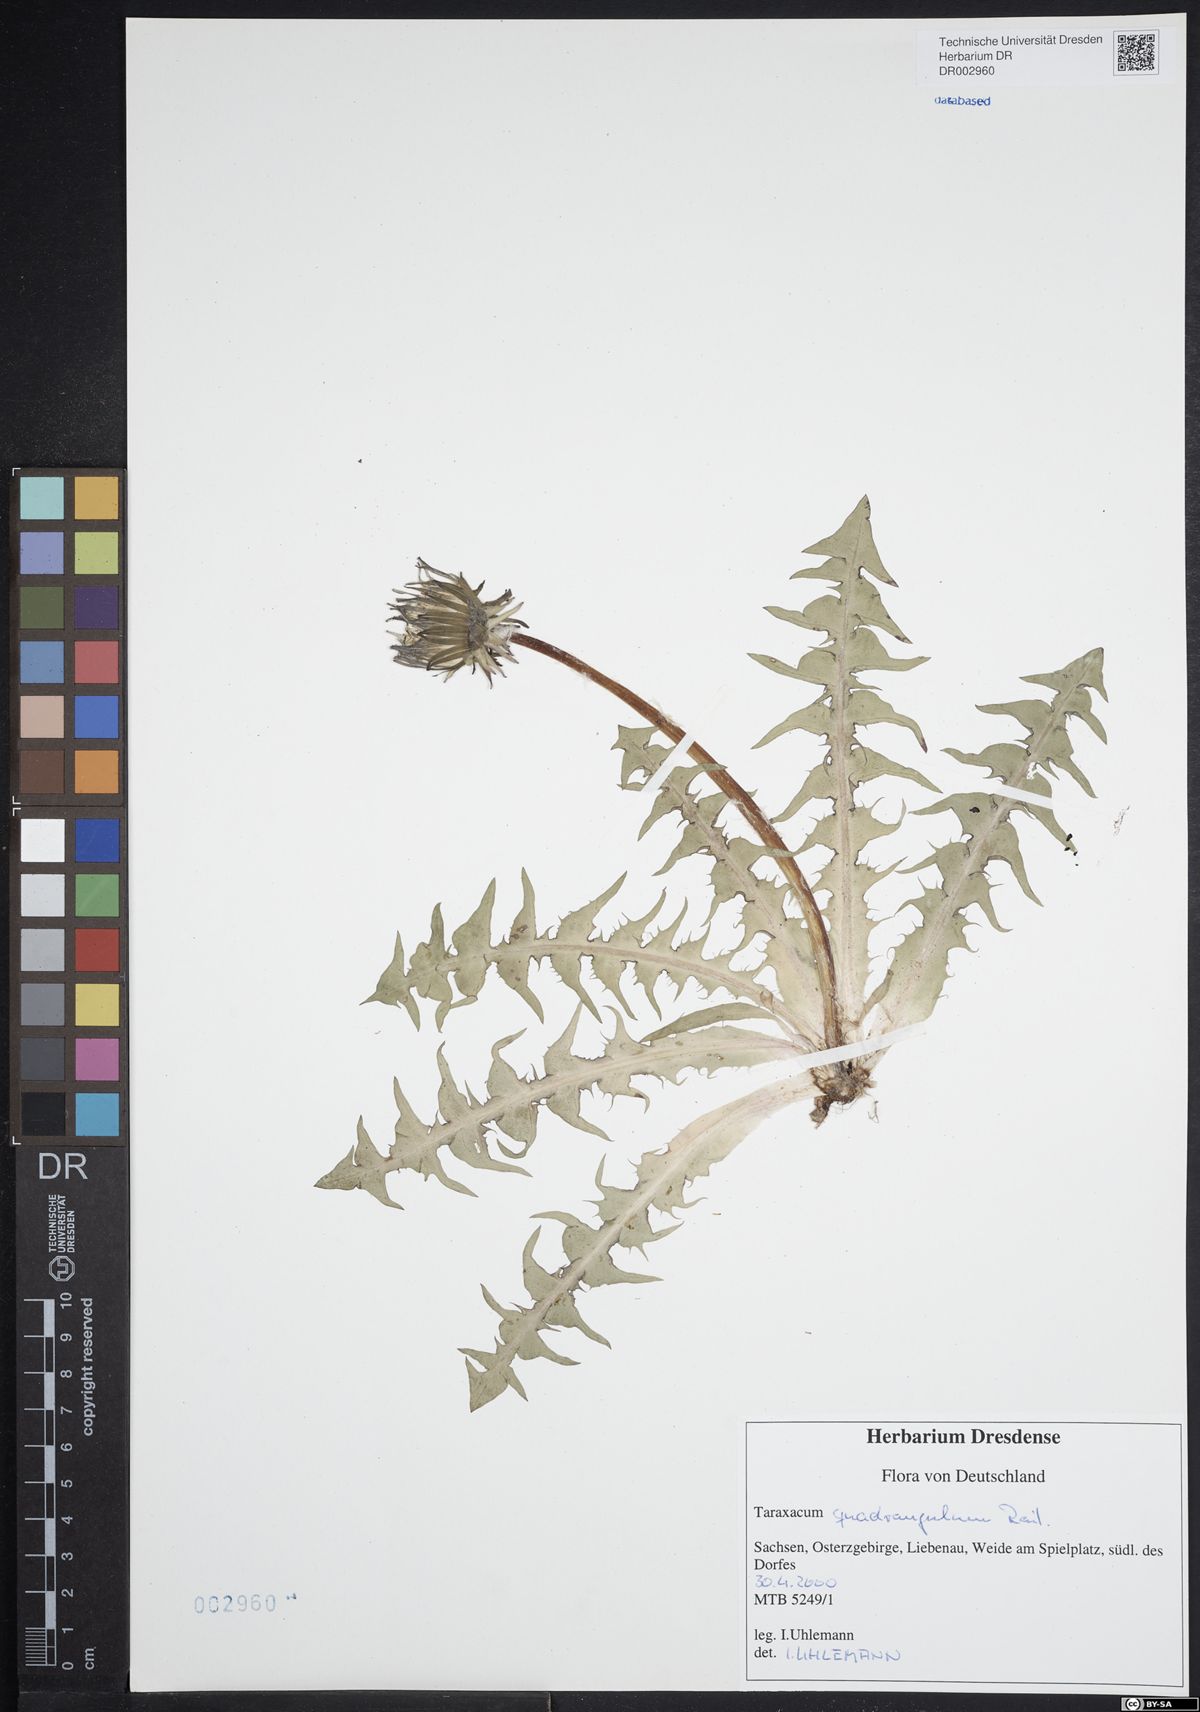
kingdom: Plantae
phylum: Tracheophyta
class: Magnoliopsida
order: Asterales
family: Asteraceae
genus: Taraxacum
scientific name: Taraxacum quadrangulum
